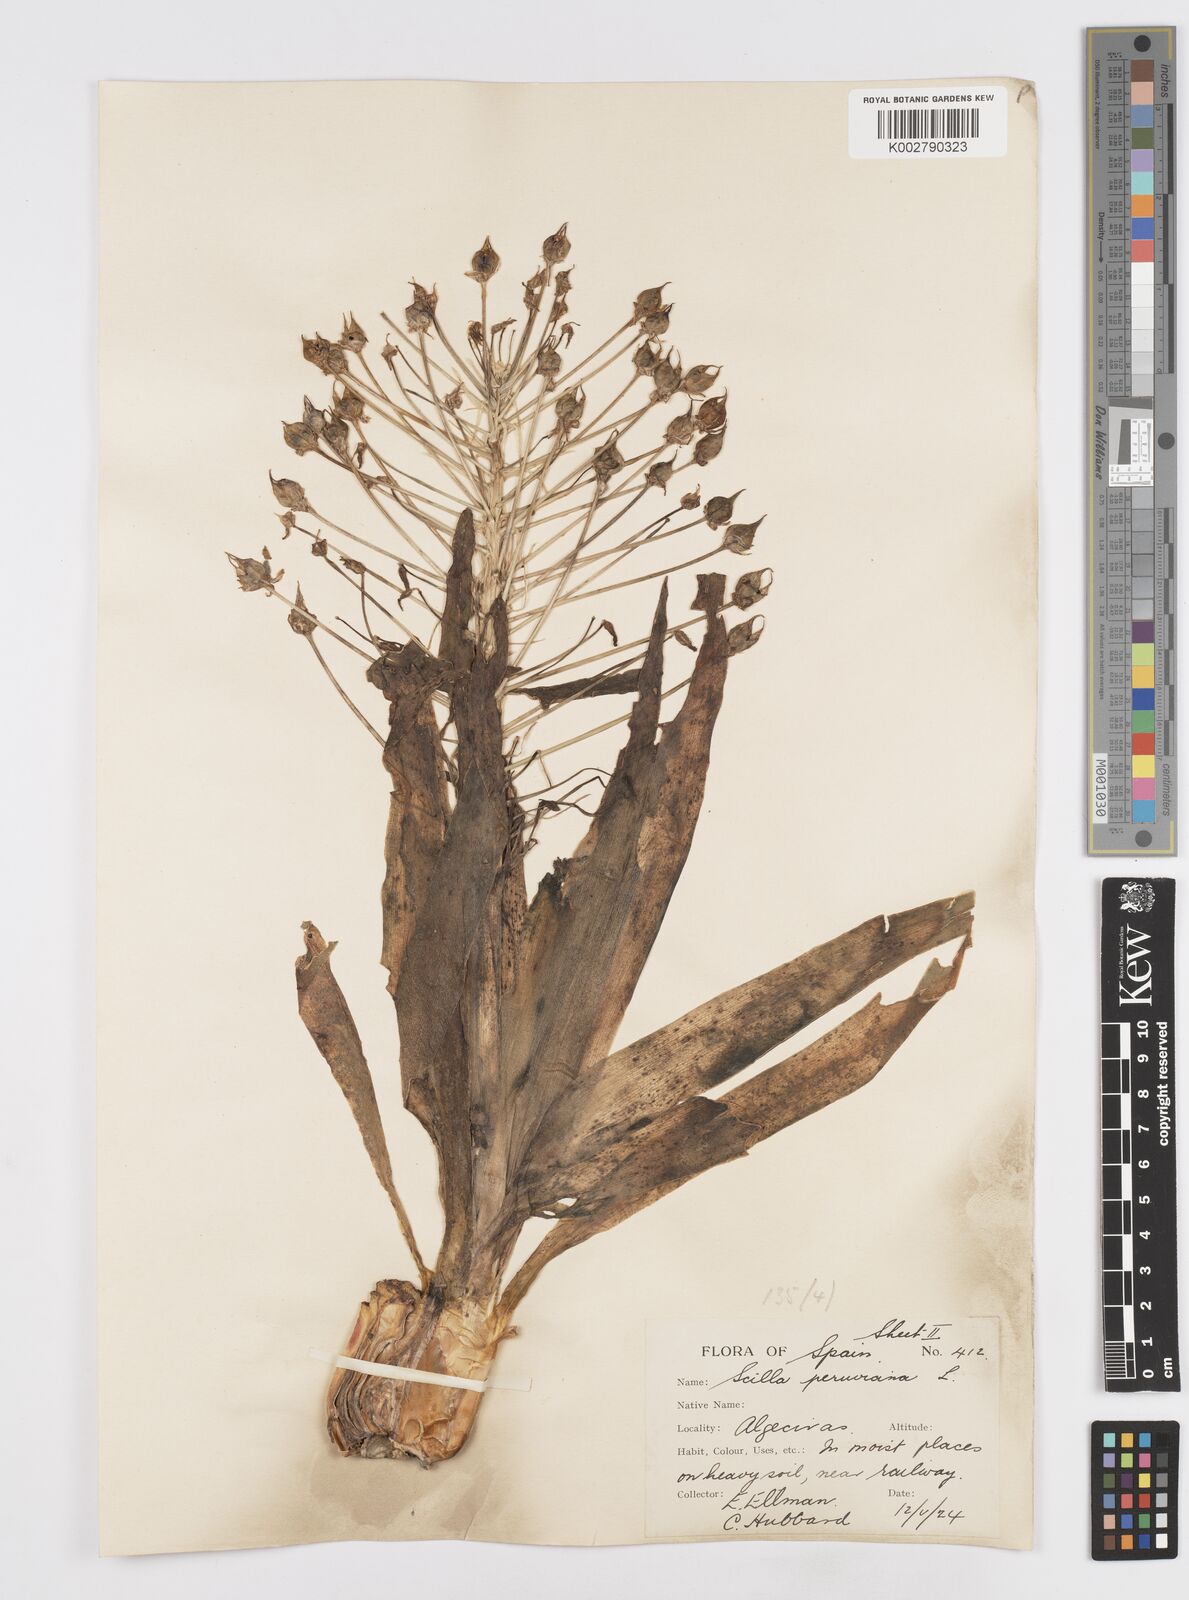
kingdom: Plantae
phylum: Tracheophyta
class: Liliopsida
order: Asparagales
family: Asparagaceae
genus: Scilla
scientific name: Scilla peruviana
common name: Portuguese squill
